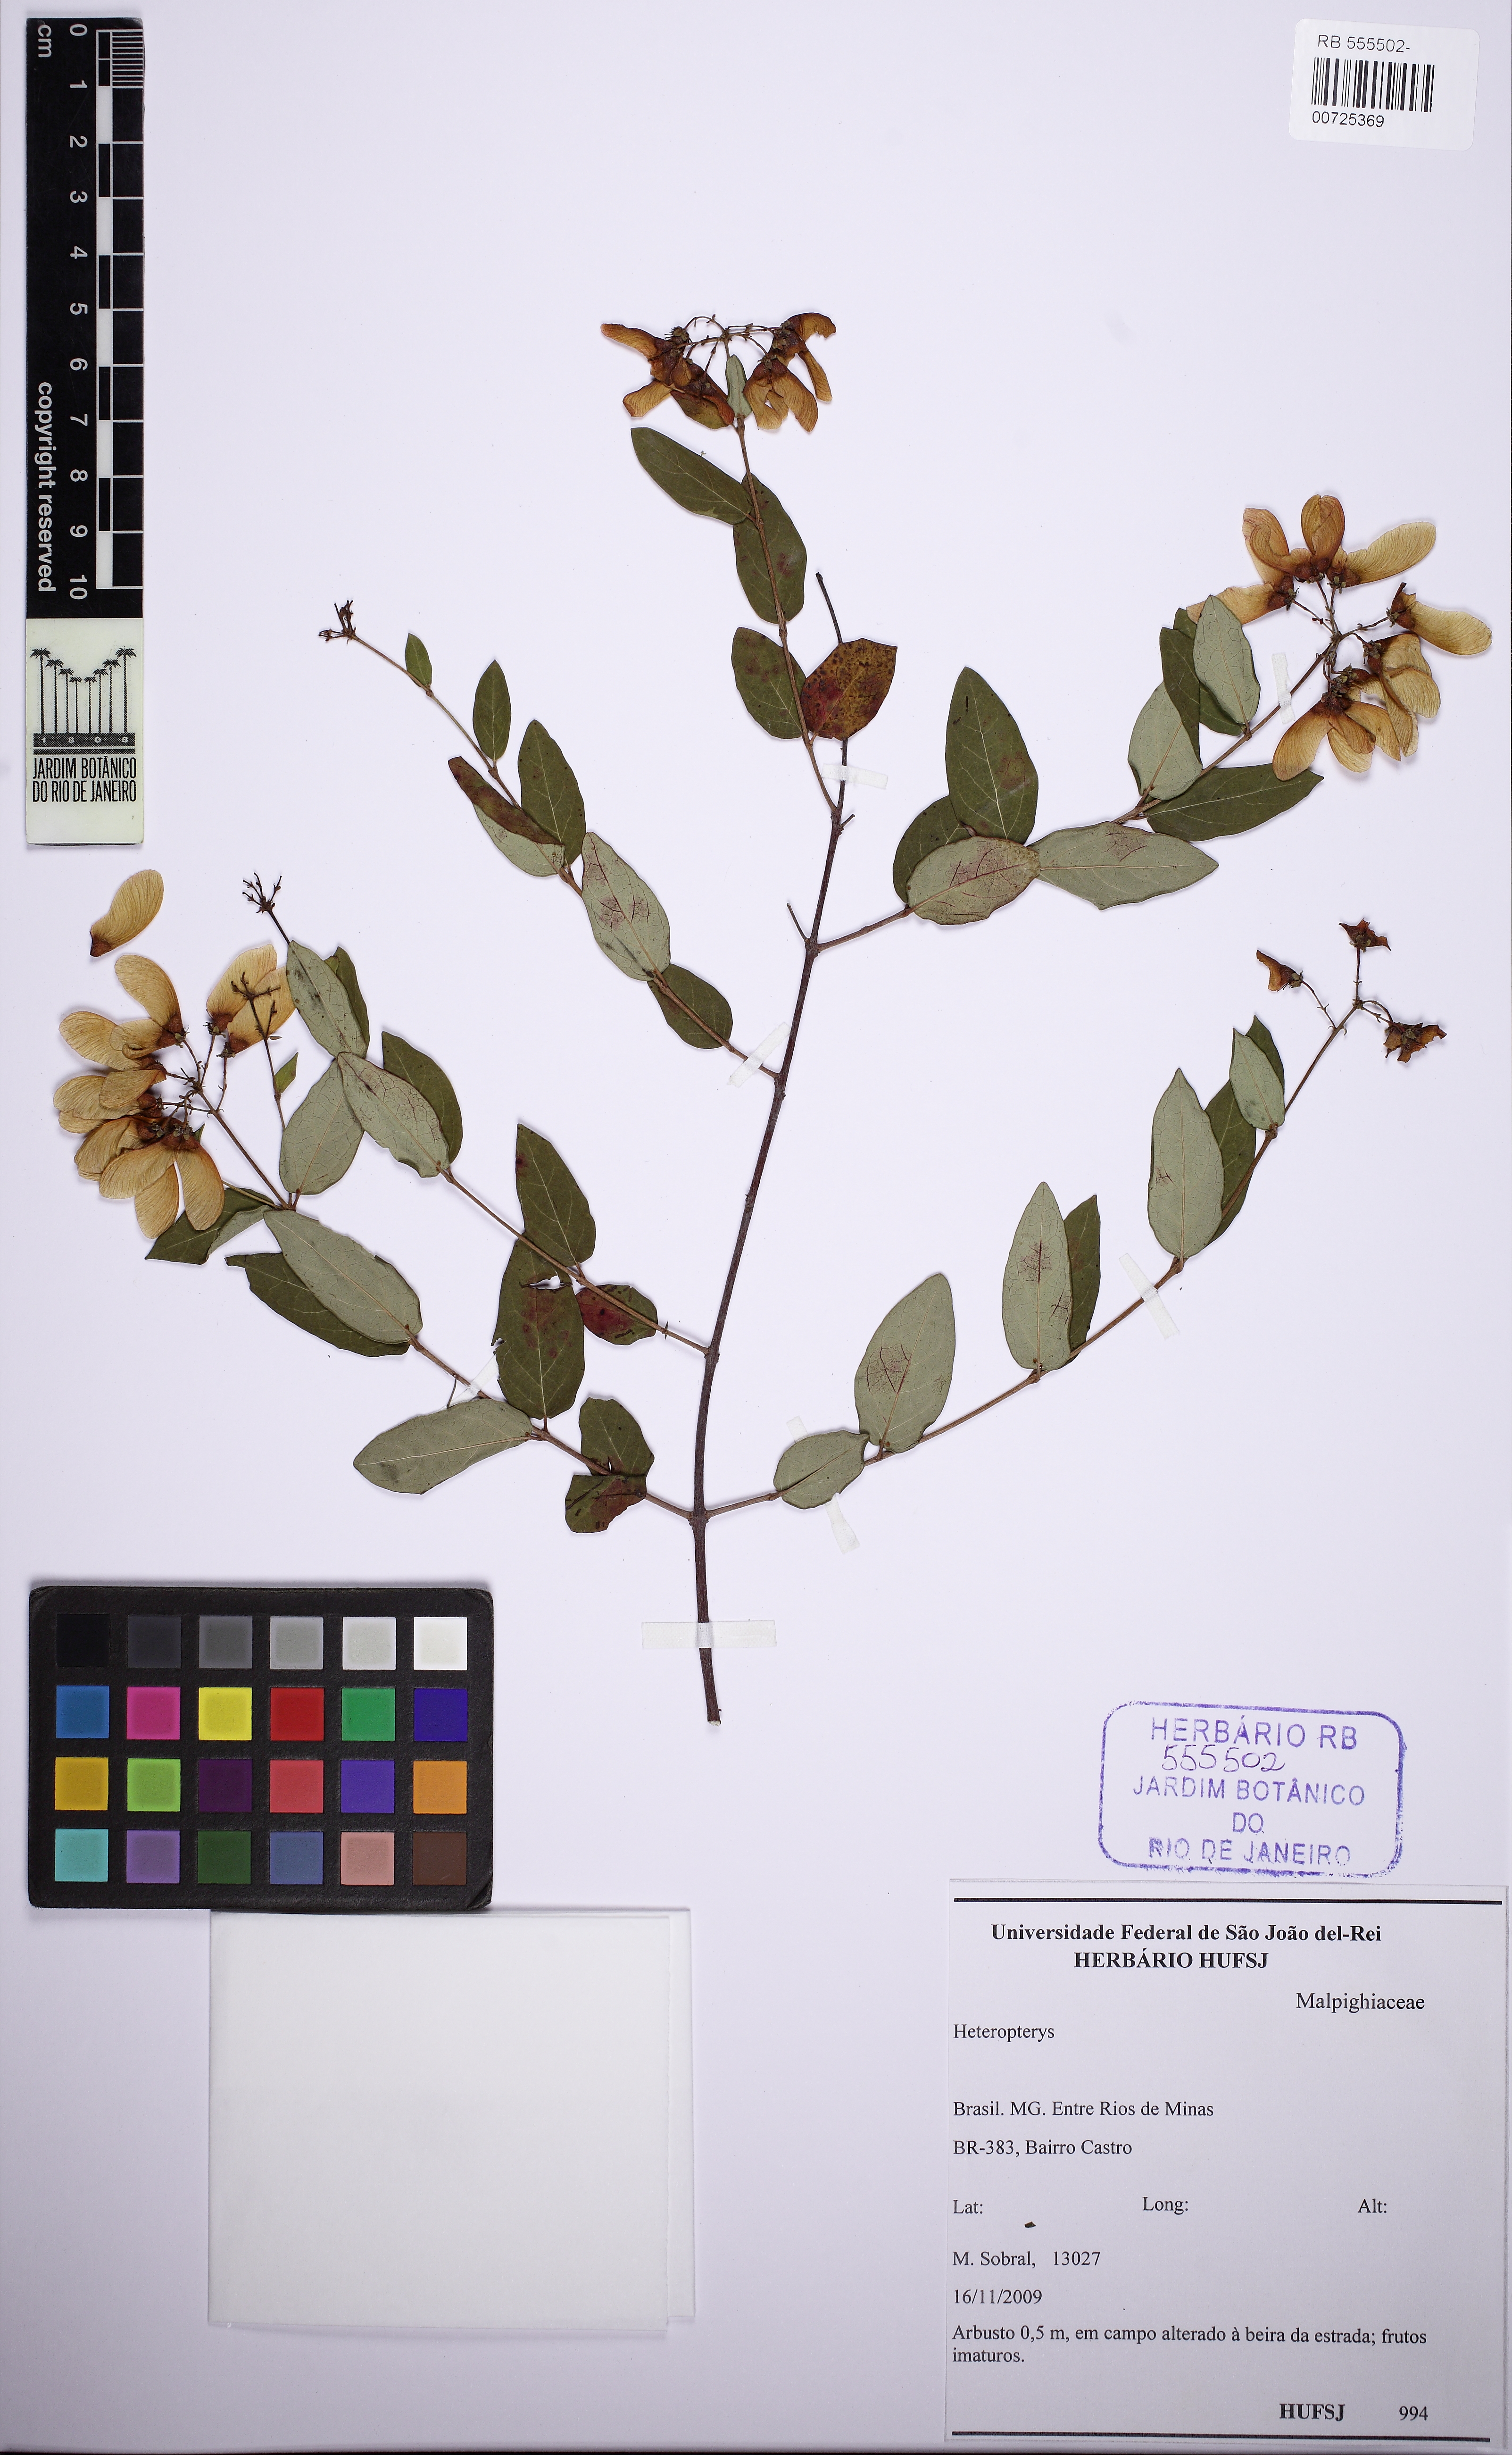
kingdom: Plantae
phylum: Tracheophyta
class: Magnoliopsida
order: Malpighiales
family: Malpighiaceae
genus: Heteropterys
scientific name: Heteropterys
